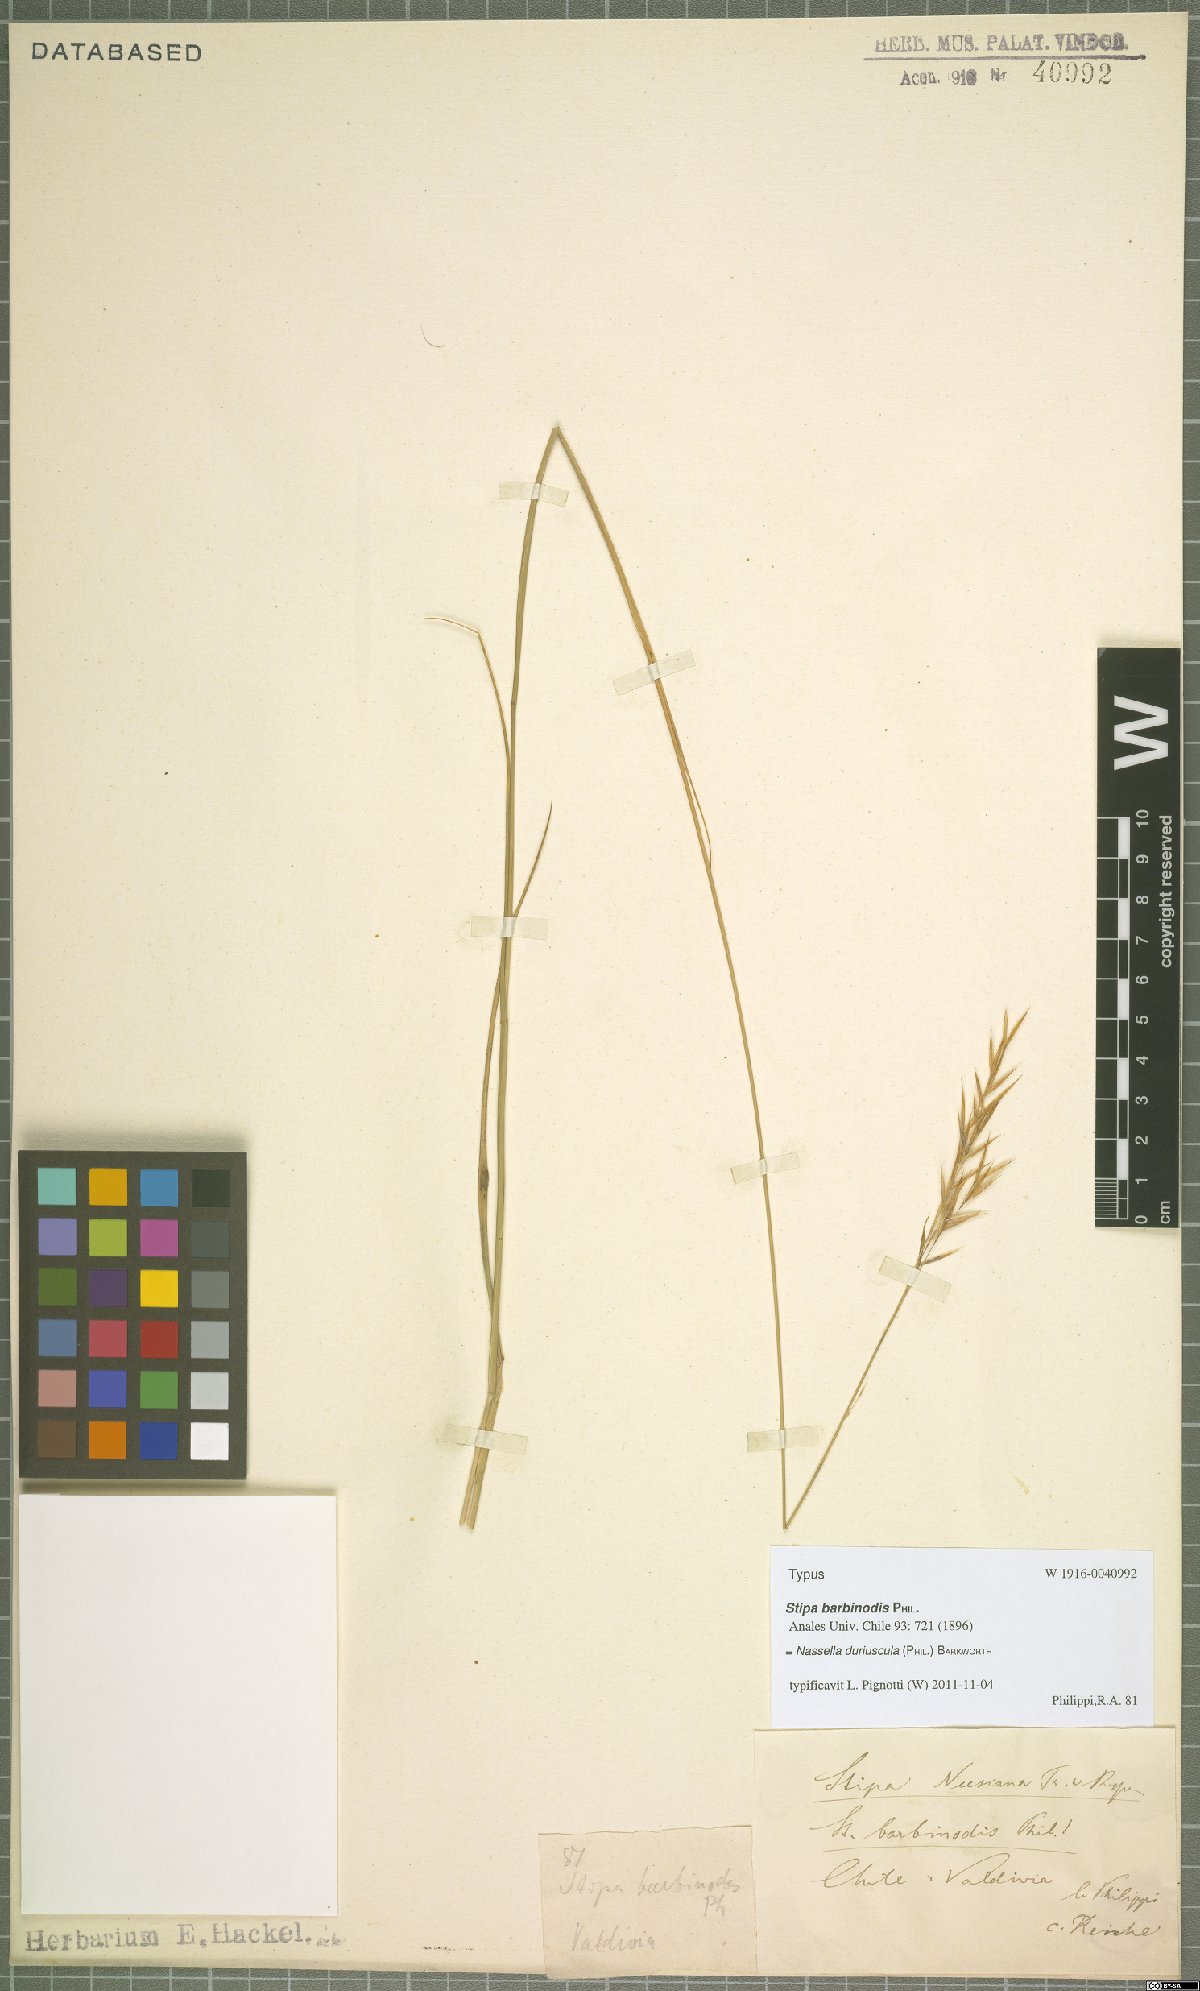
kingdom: Plantae
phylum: Tracheophyta
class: Liliopsida
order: Poales
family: Poaceae
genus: Nassella
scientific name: Nassella duriuscula
